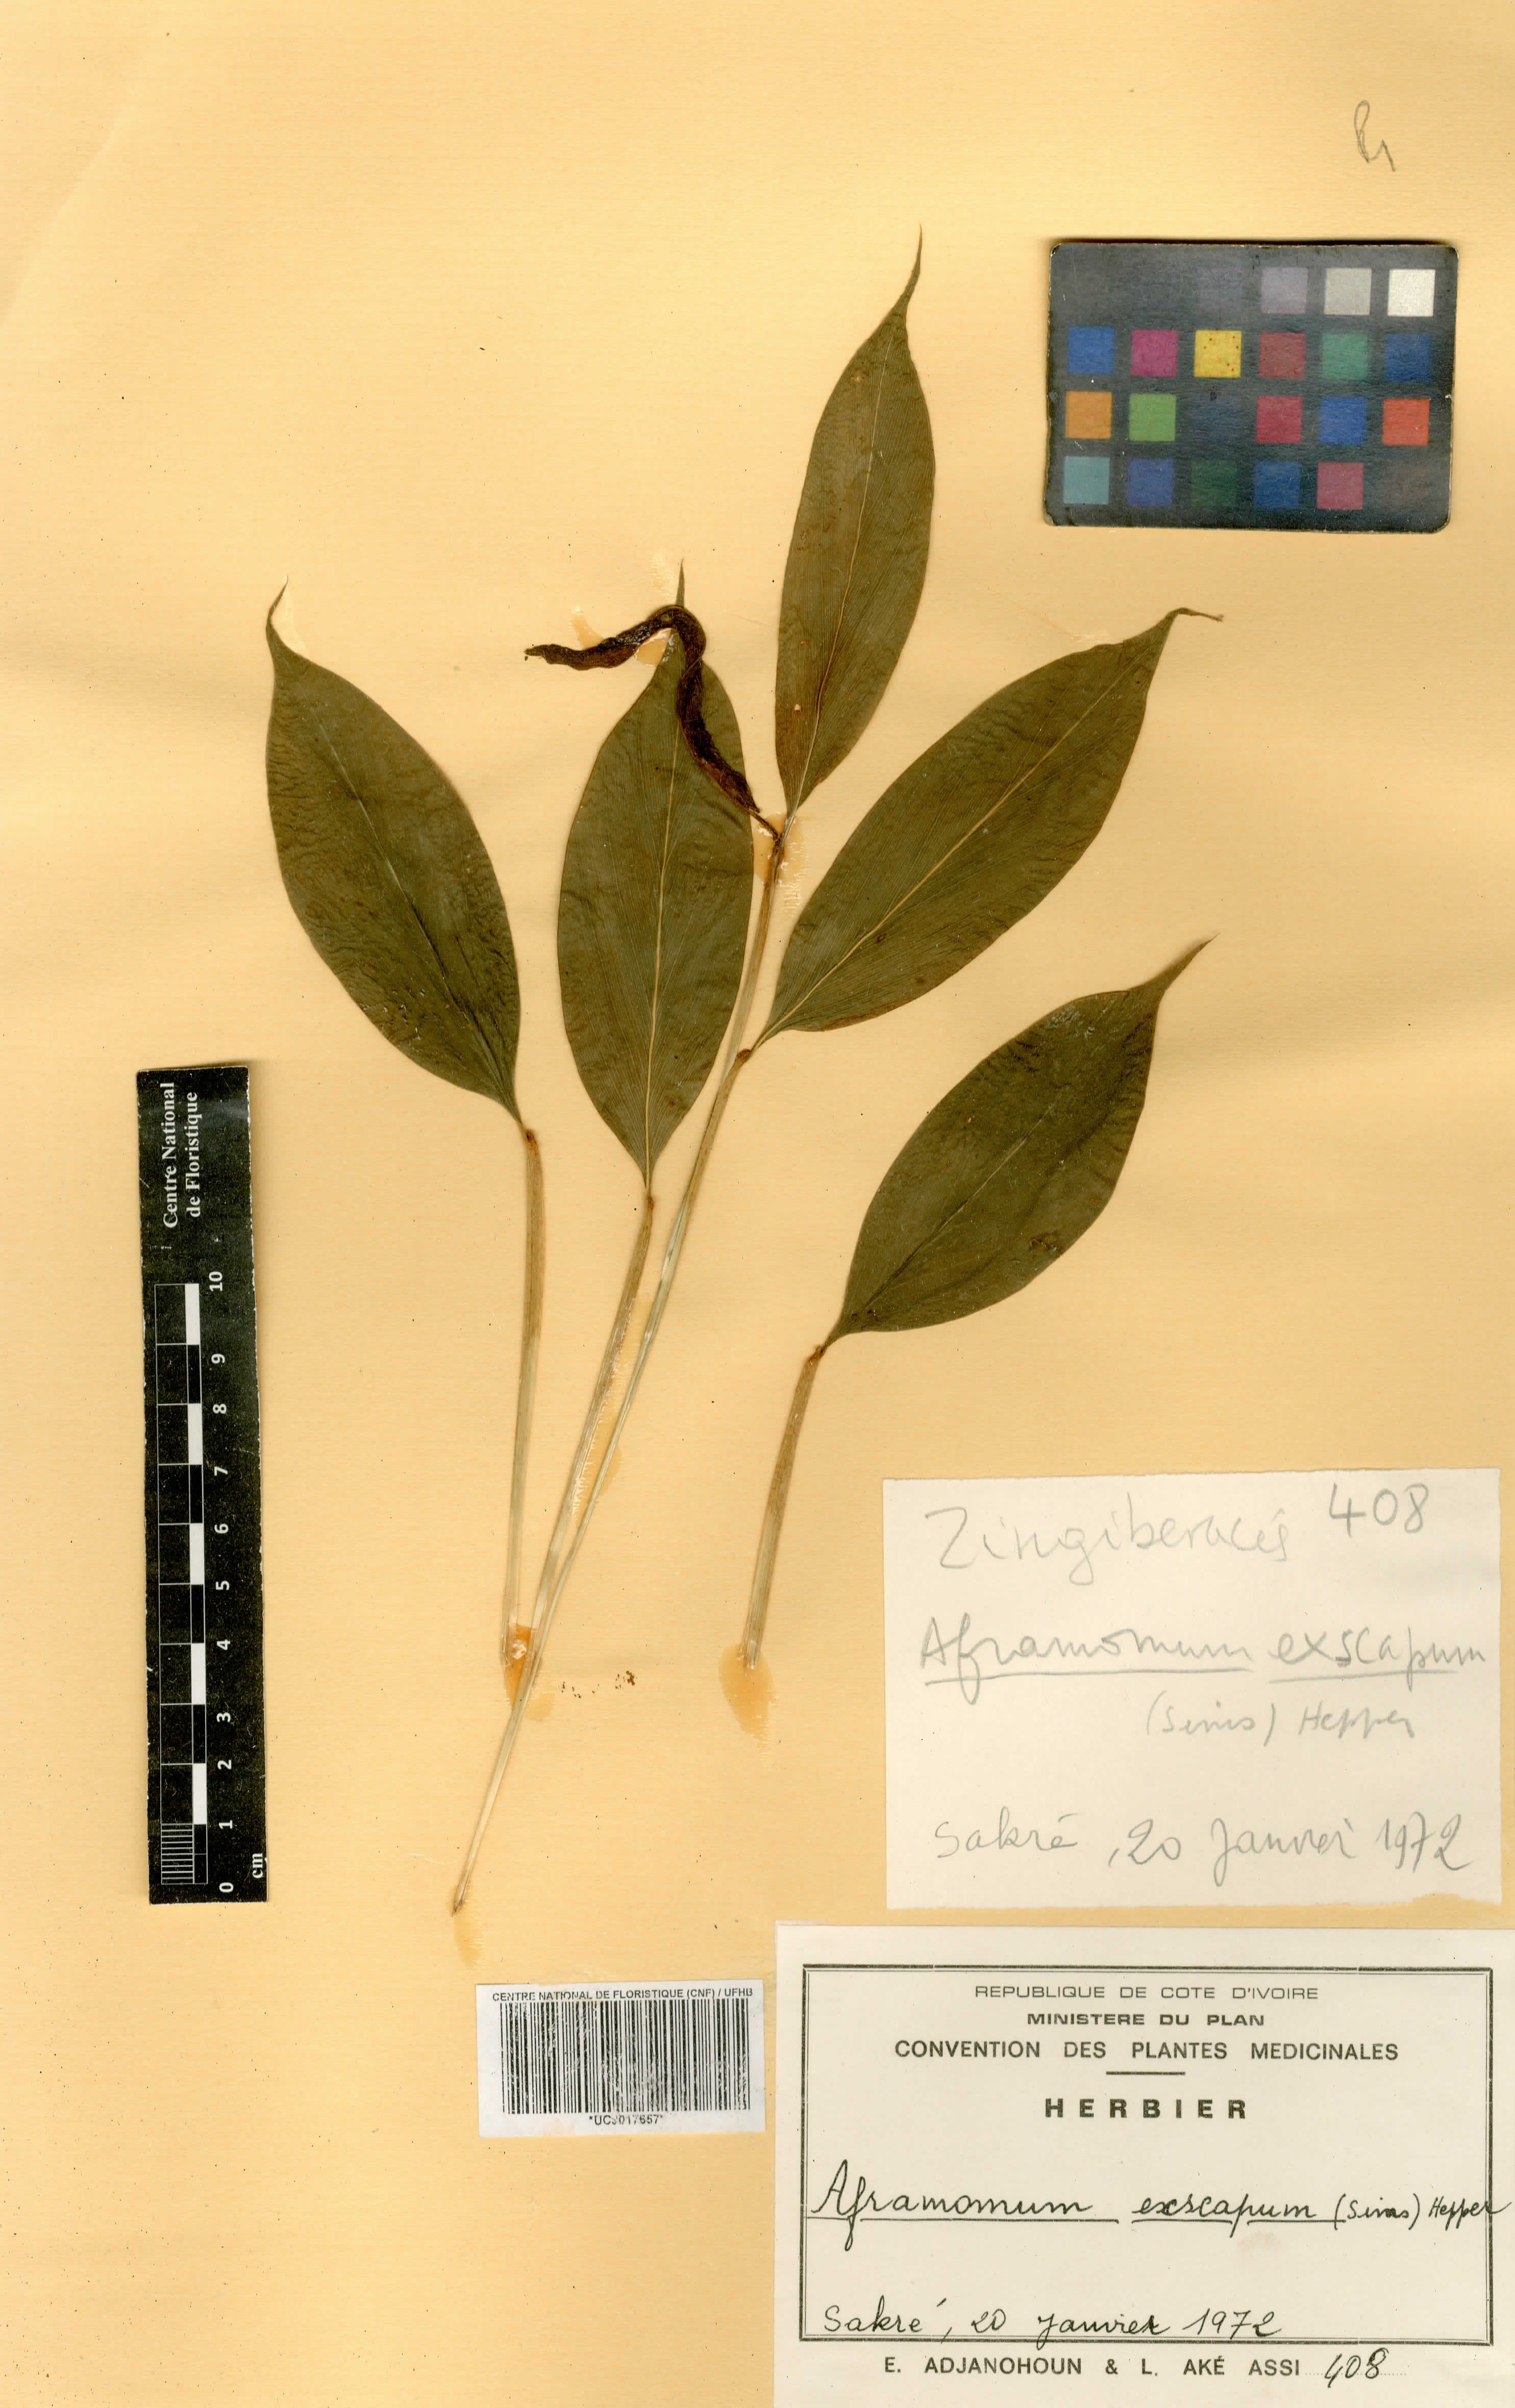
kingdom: Plantae
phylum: Tracheophyta
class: Liliopsida
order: Zingiberales
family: Zingiberaceae
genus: Aframomum
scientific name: Aframomum exscapum
